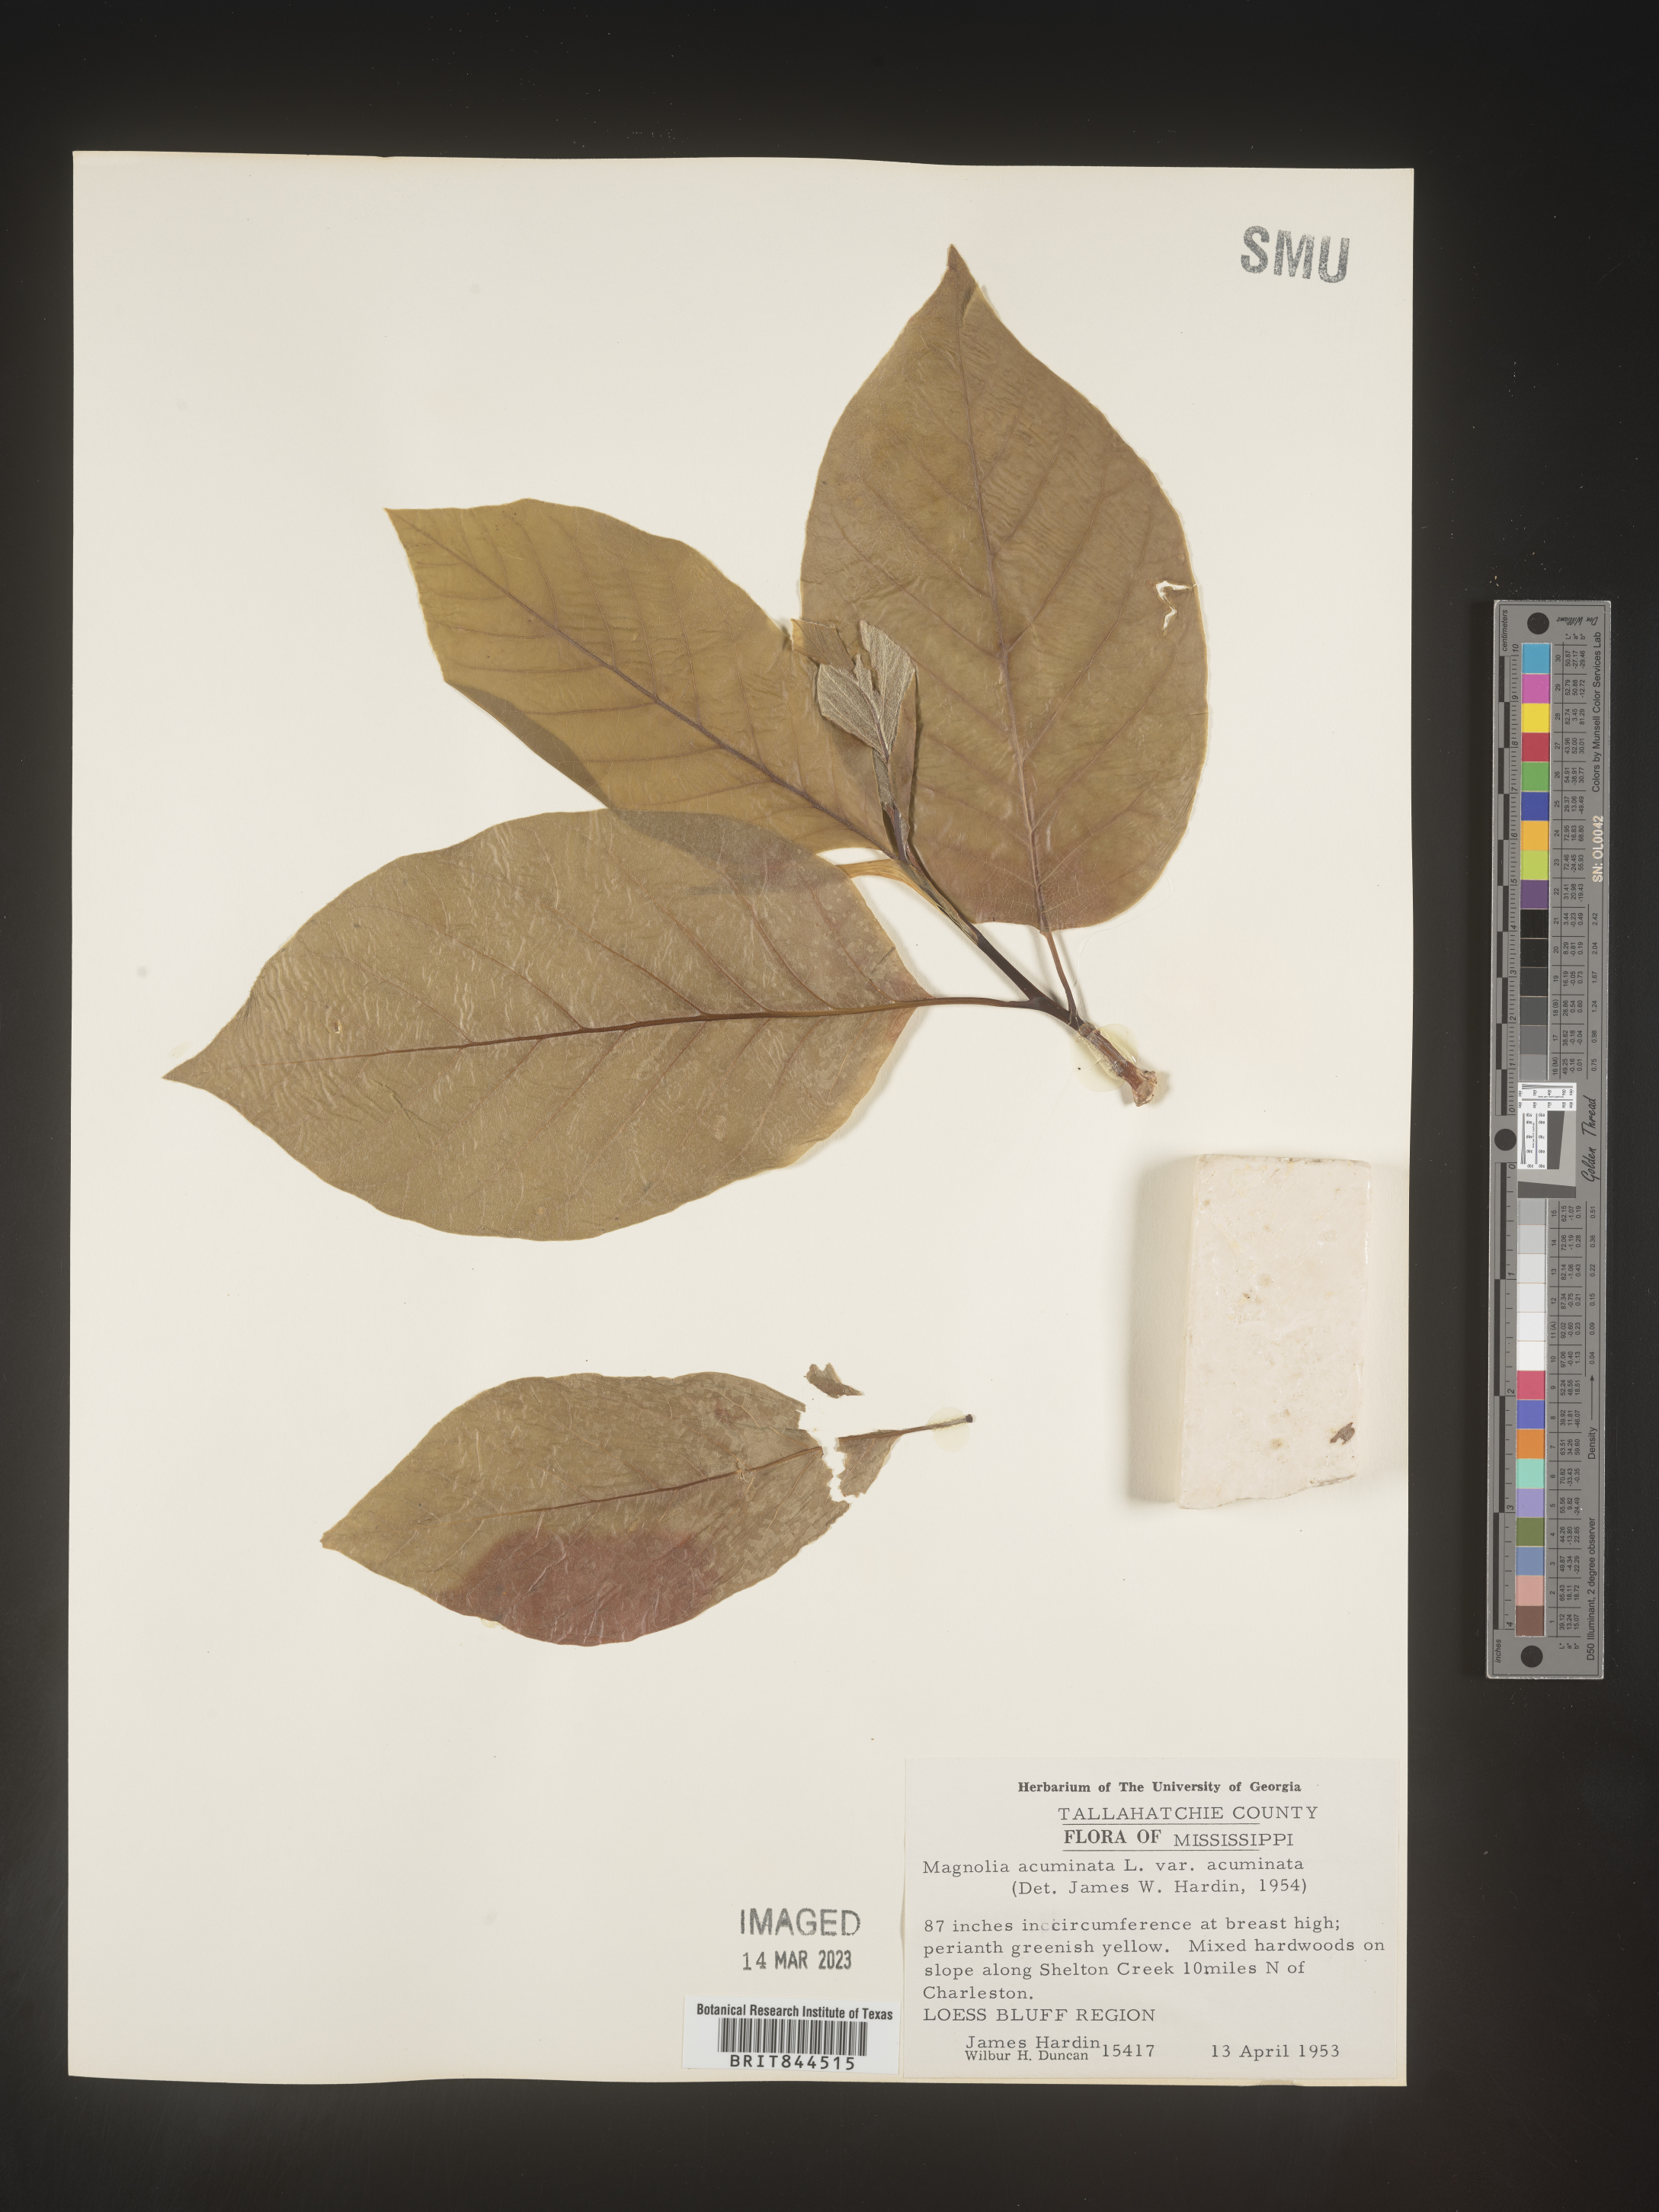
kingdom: Plantae
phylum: Tracheophyta
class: Magnoliopsida
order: Magnoliales
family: Magnoliaceae
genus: Magnolia
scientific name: Magnolia acuminata
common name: Cucumber magnolia
